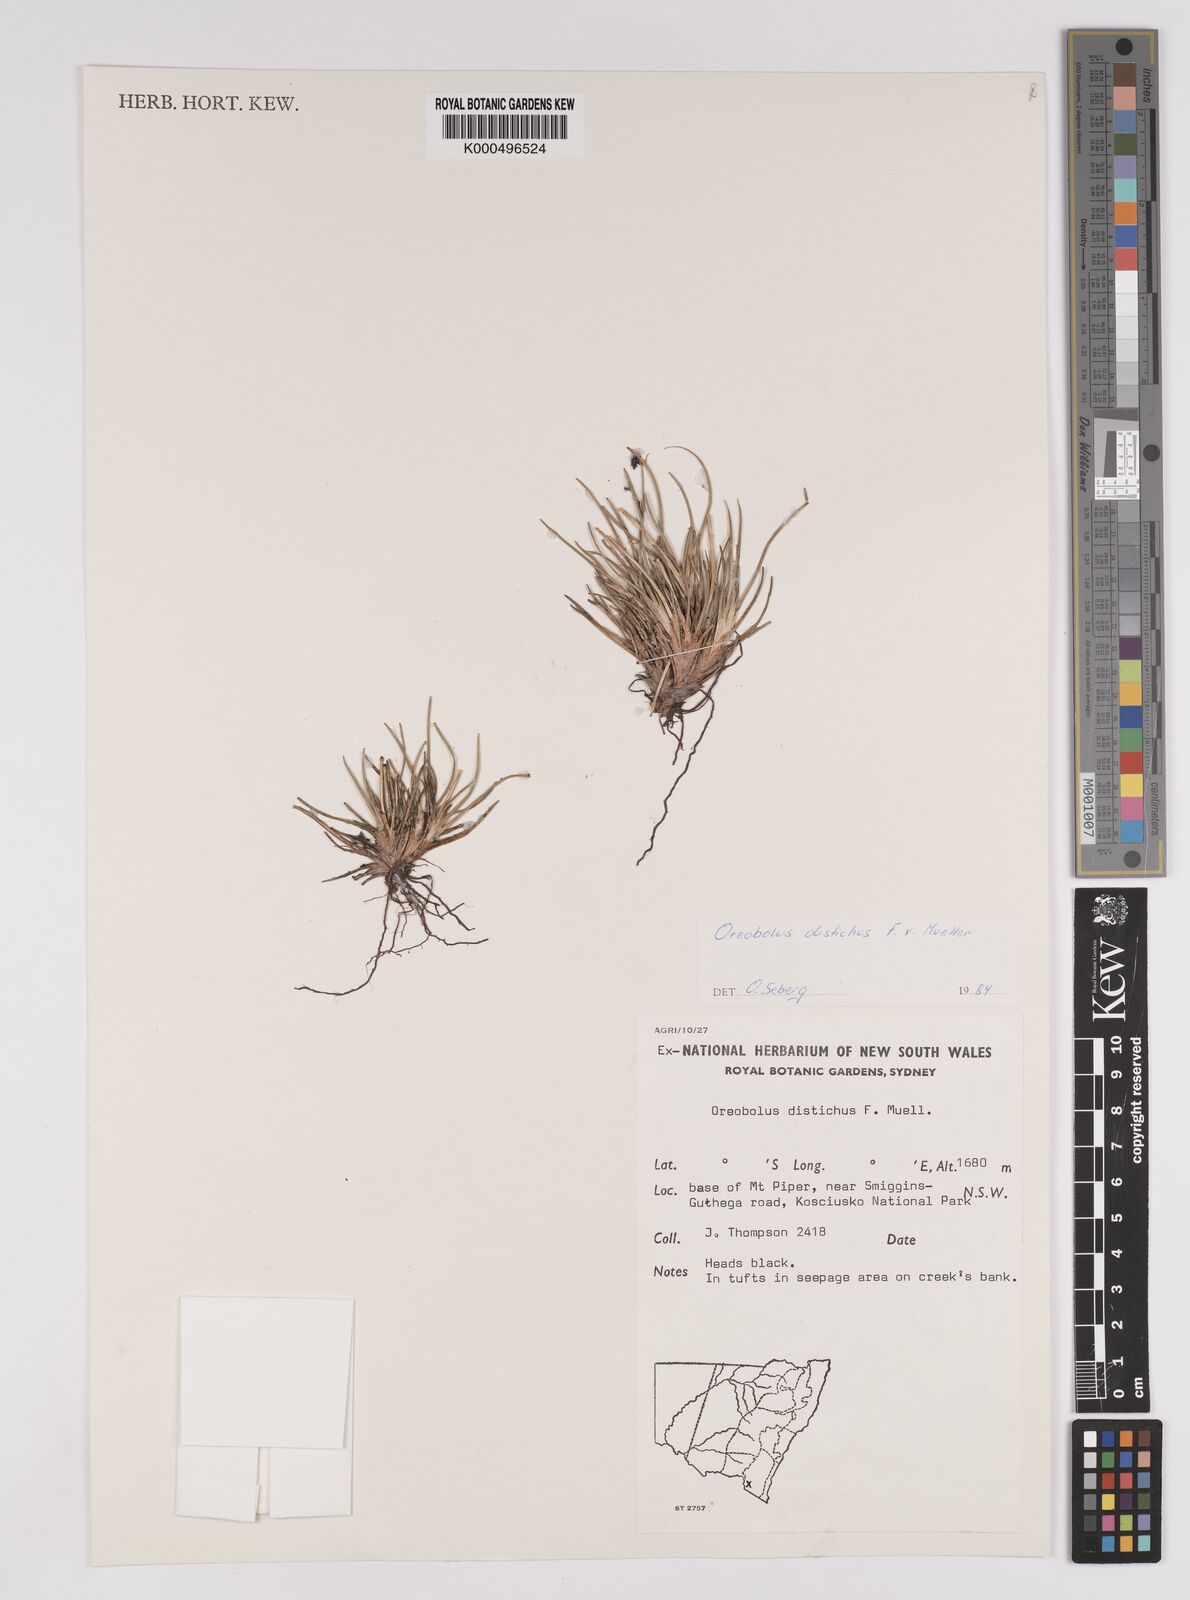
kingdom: Plantae
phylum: Tracheophyta
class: Liliopsida
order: Poales
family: Cyperaceae
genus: Oreobolus
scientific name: Oreobolus
